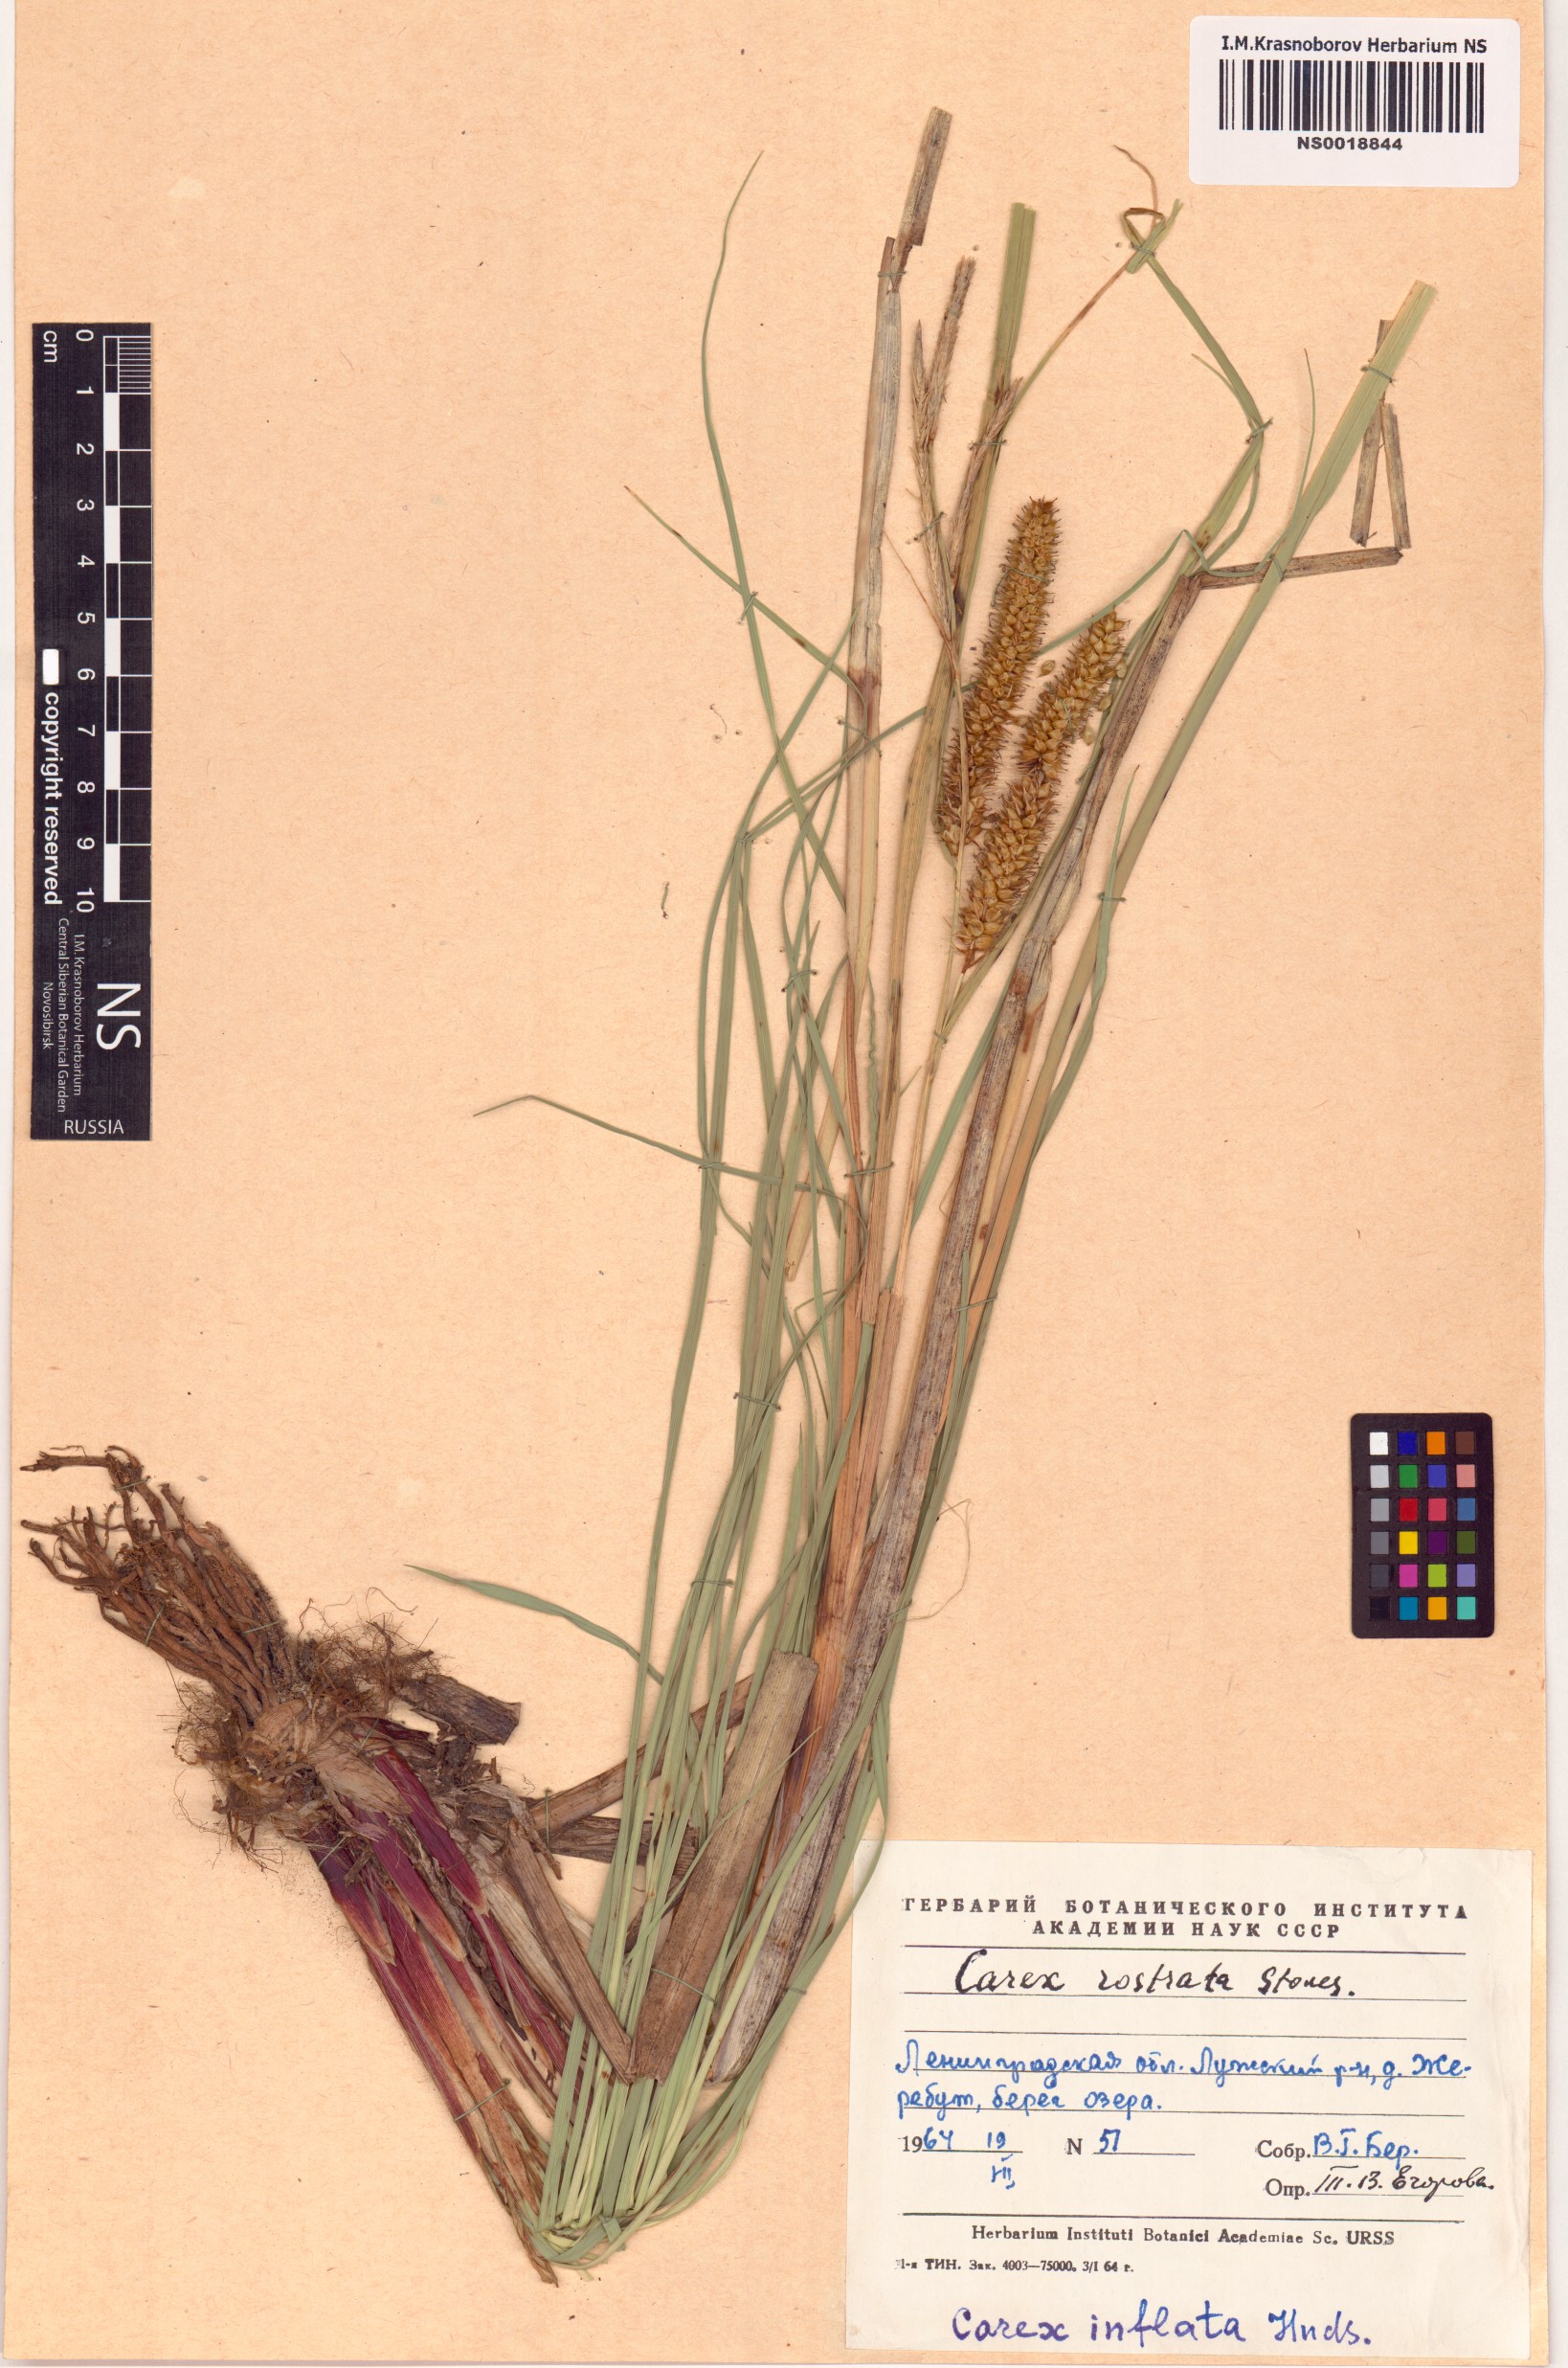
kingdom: Plantae
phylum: Tracheophyta
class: Liliopsida
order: Poales
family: Cyperaceae
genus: Carex
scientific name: Carex rostrata
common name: Bottle sedge
